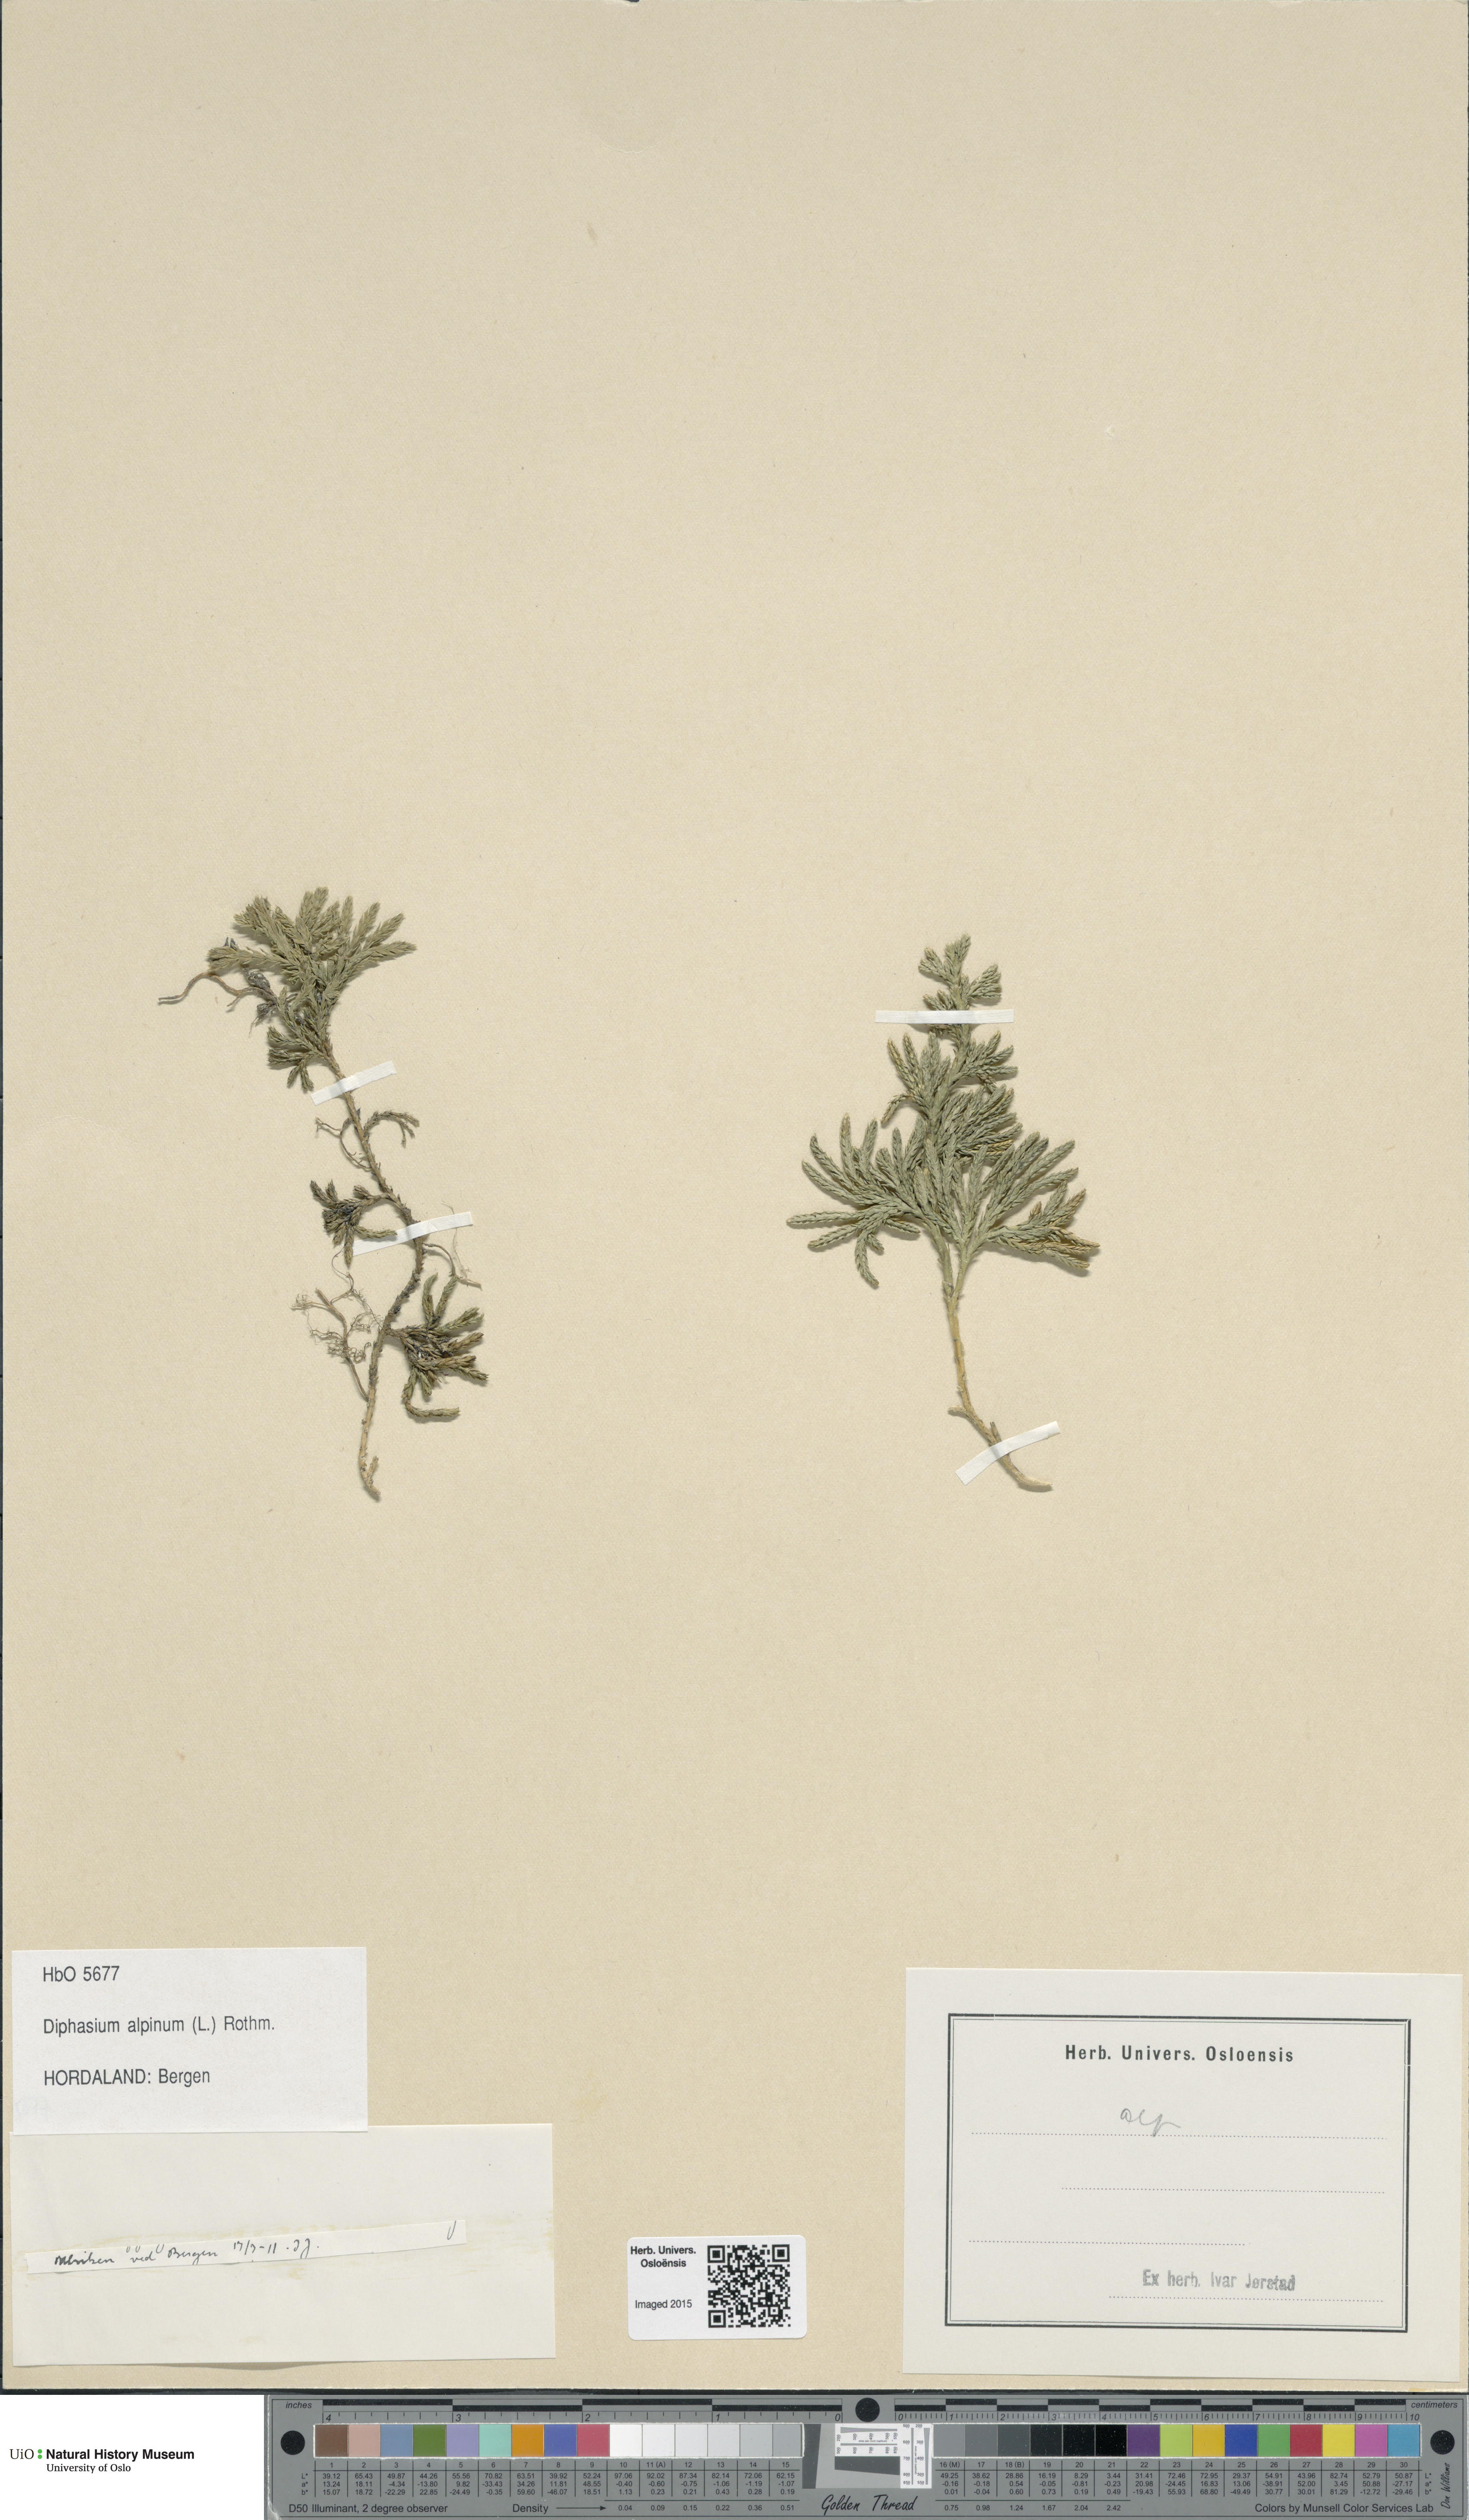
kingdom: Plantae
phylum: Tracheophyta
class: Lycopodiopsida
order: Lycopodiales
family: Lycopodiaceae
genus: Diphasiastrum
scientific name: Diphasiastrum alpinum
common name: Alpine clubmoss
